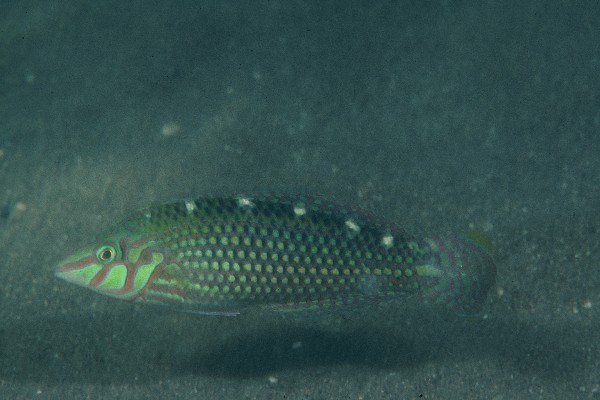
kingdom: Animalia
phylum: Chordata
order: Perciformes
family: Labridae
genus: Halichoeres
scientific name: Halichoeres argus
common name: Argus wrasse
